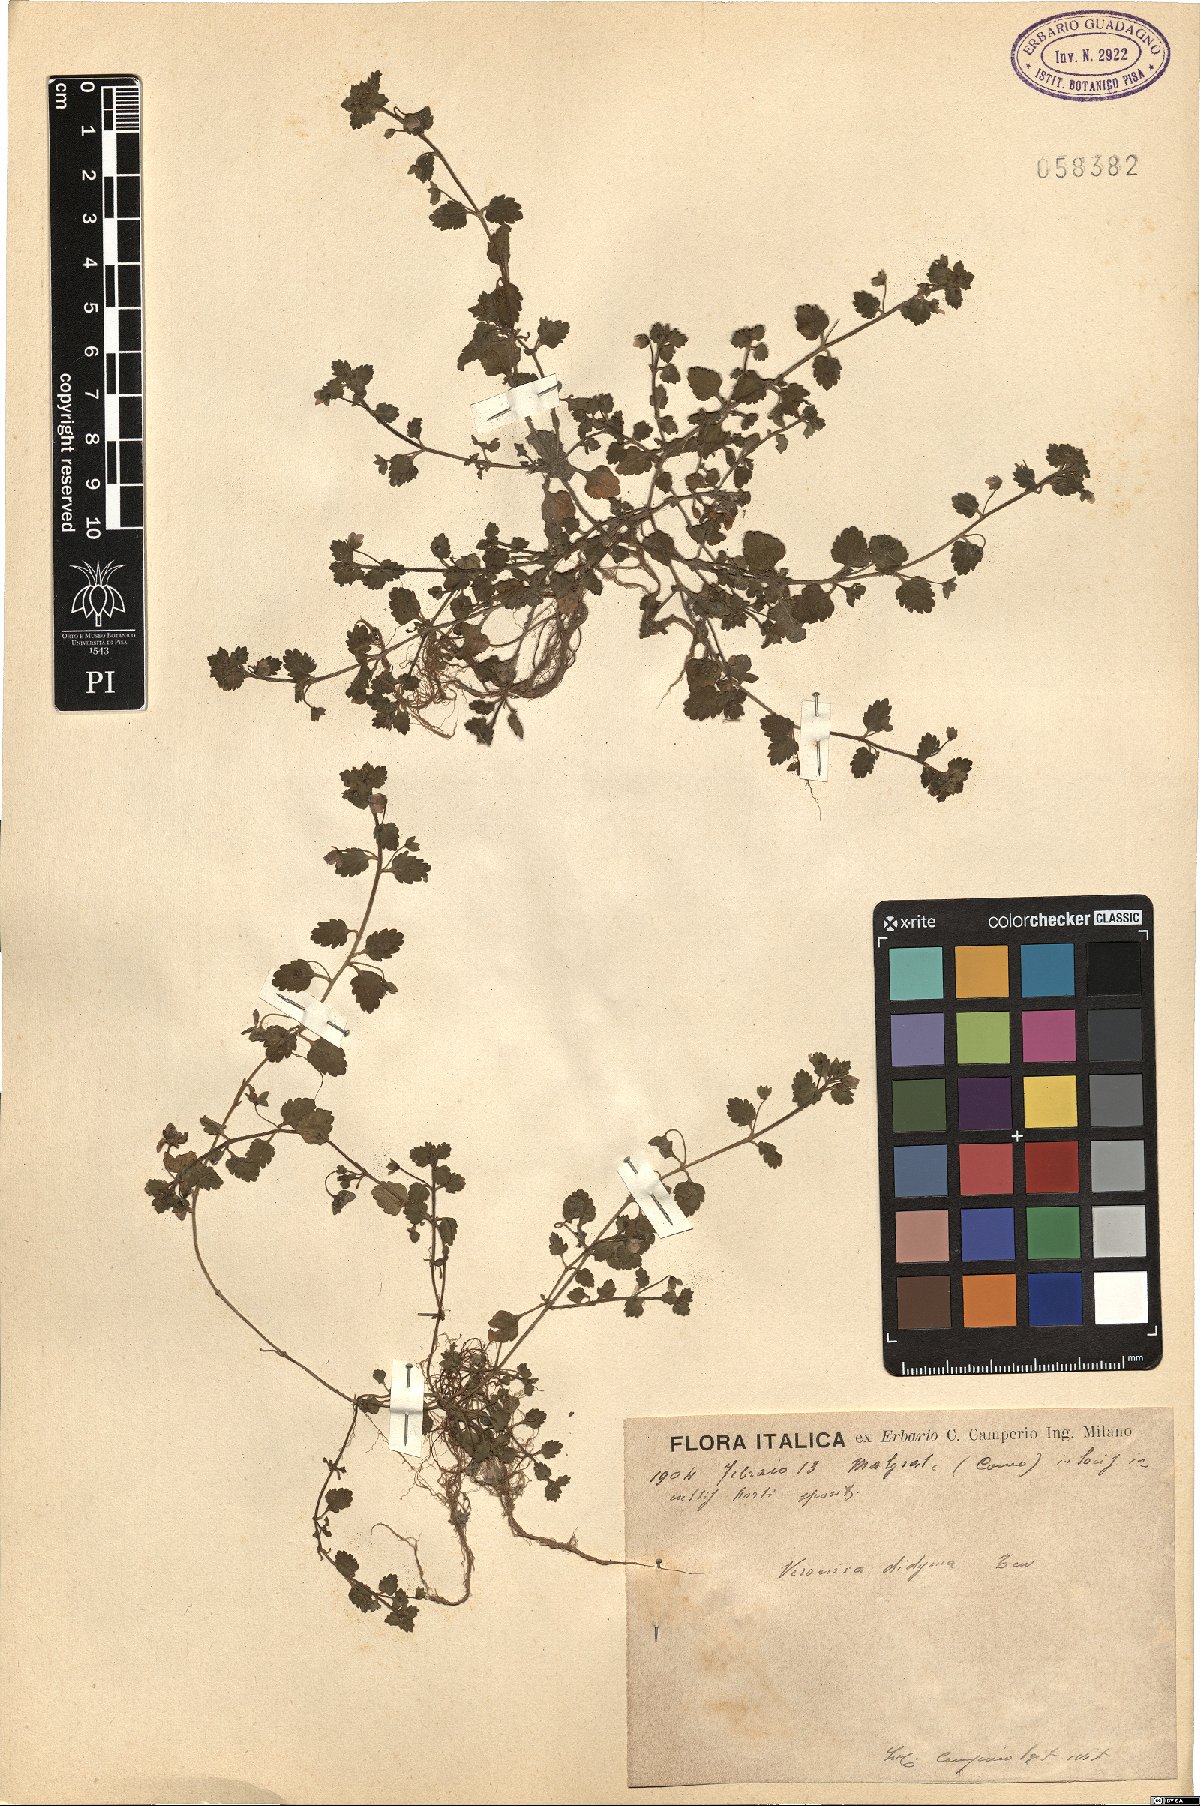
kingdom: Plantae
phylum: Tracheophyta
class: Magnoliopsida
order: Lamiales
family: Plantaginaceae
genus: Veronica
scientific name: Veronica polita
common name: Grey field-speedwell
